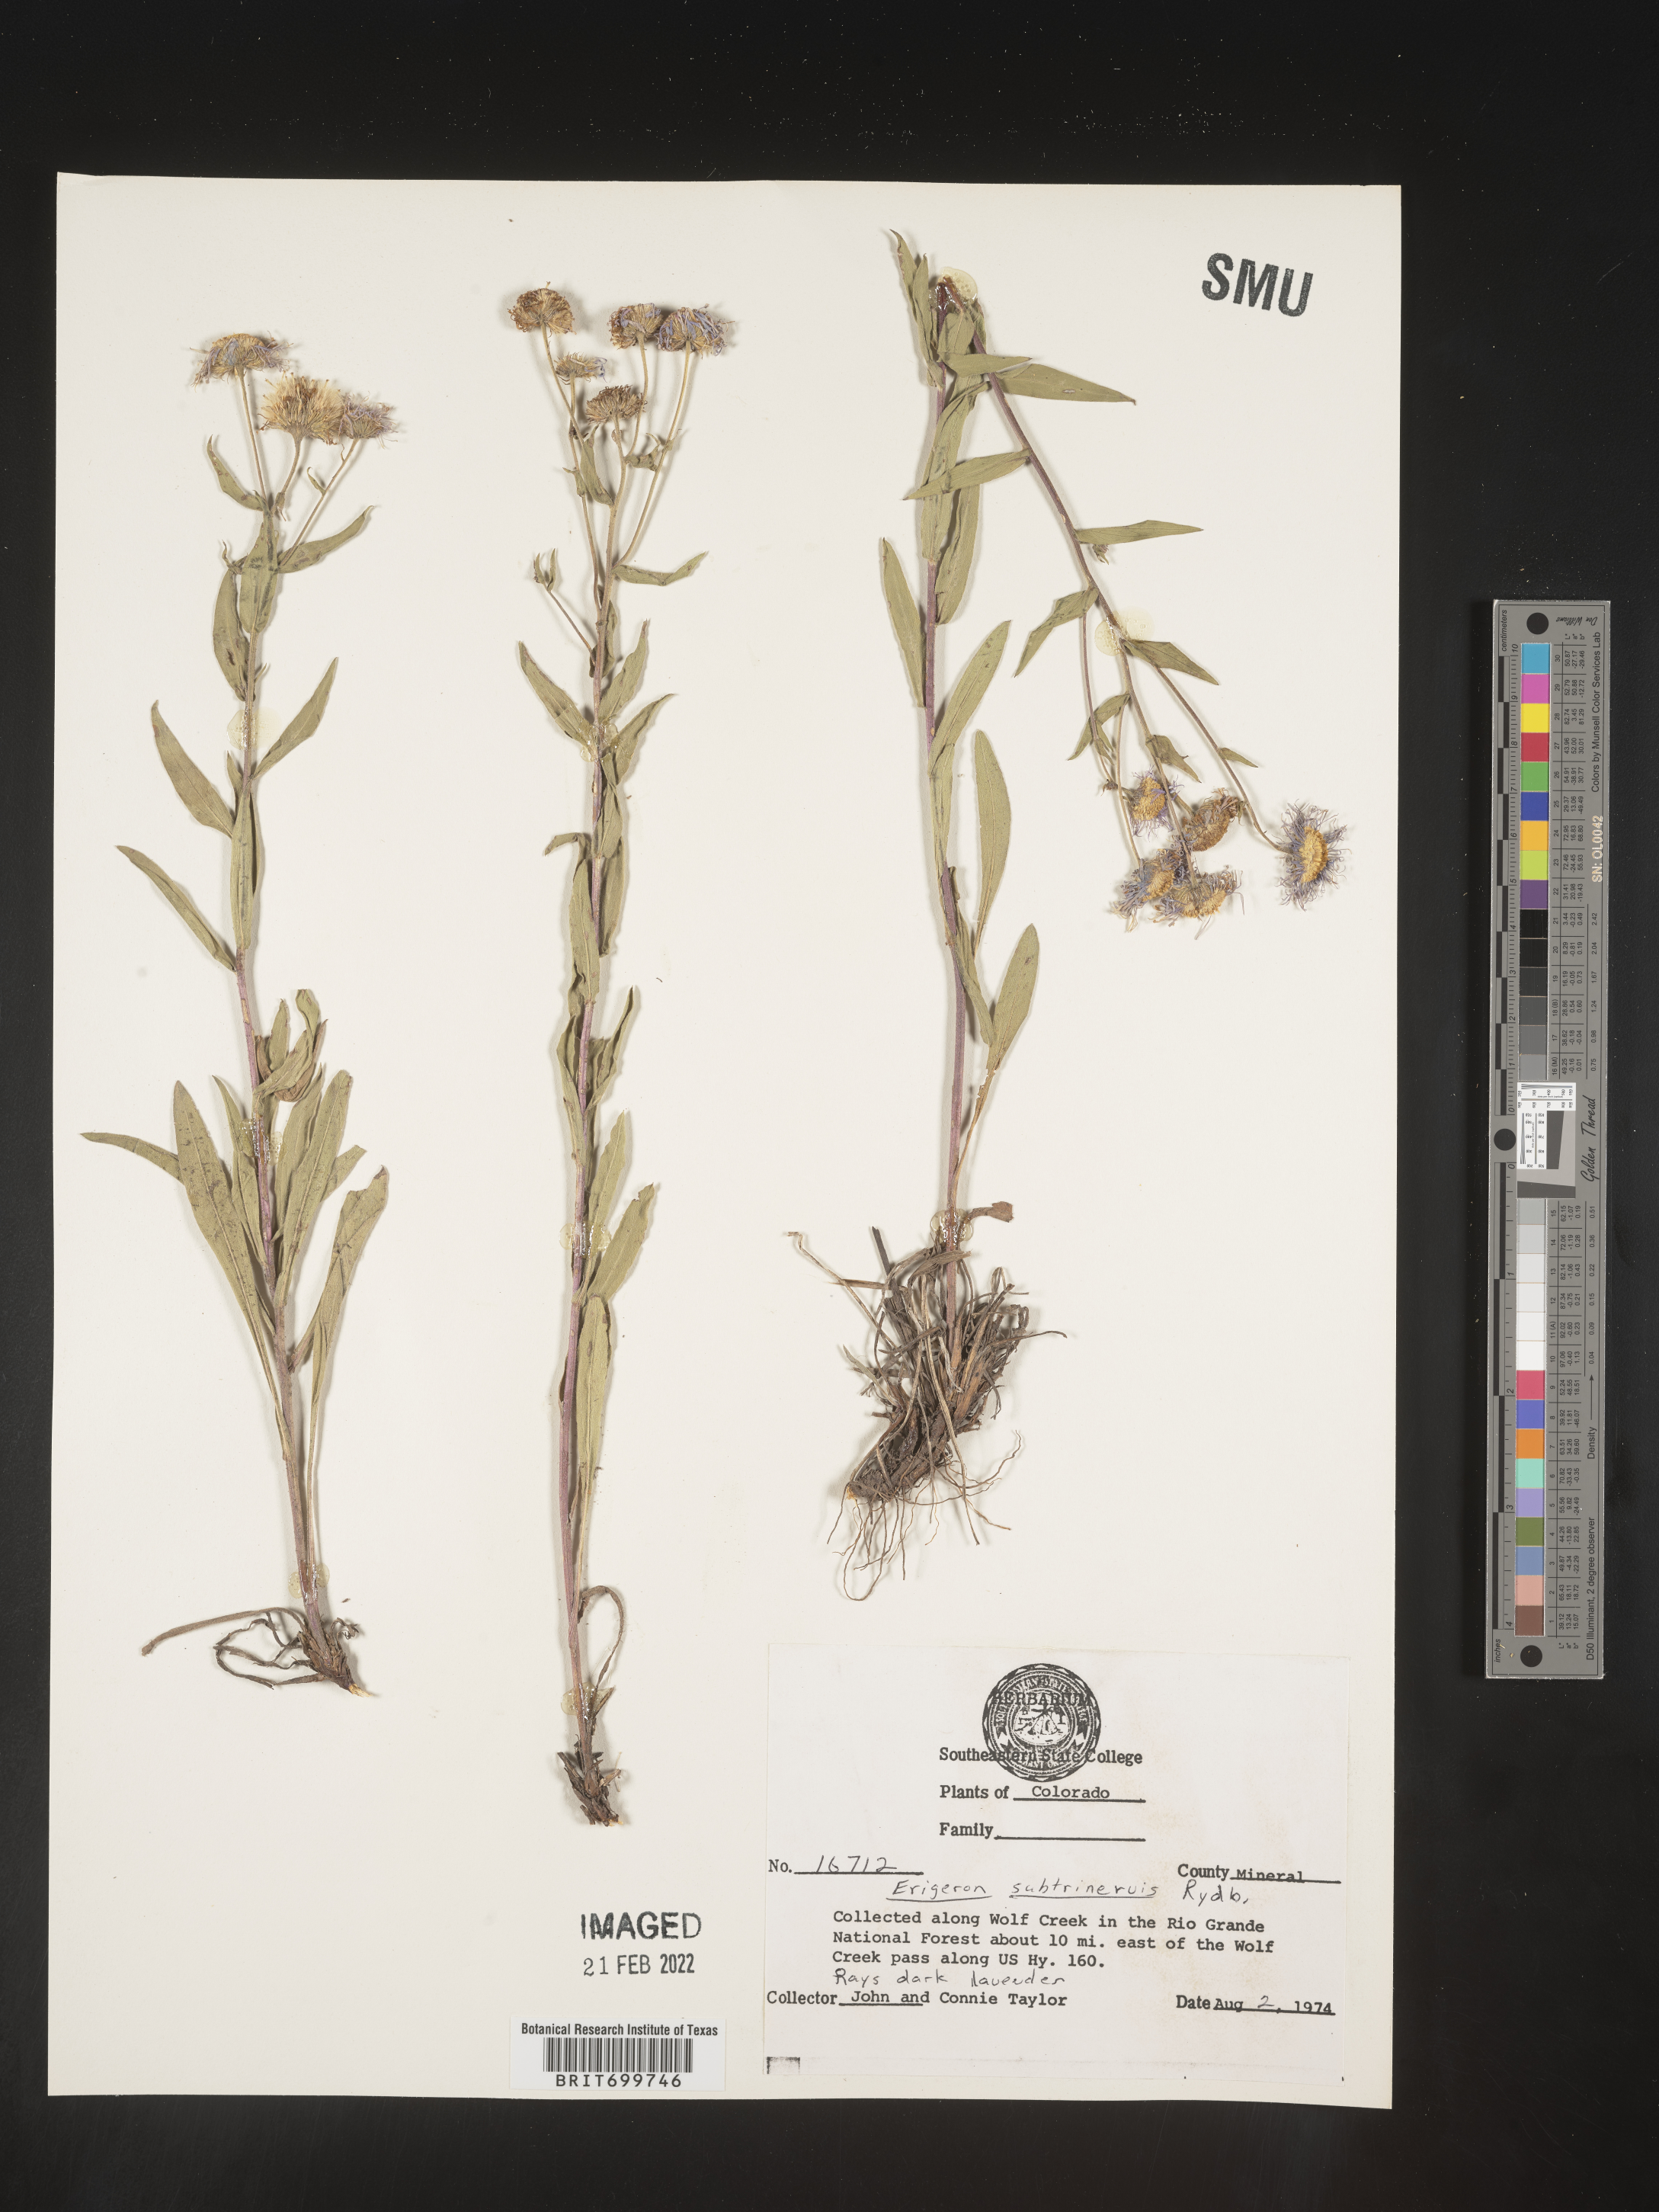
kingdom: Plantae
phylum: Tracheophyta
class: Magnoliopsida
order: Asterales
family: Asteraceae
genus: Erigeron
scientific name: Erigeron subtrinervis
